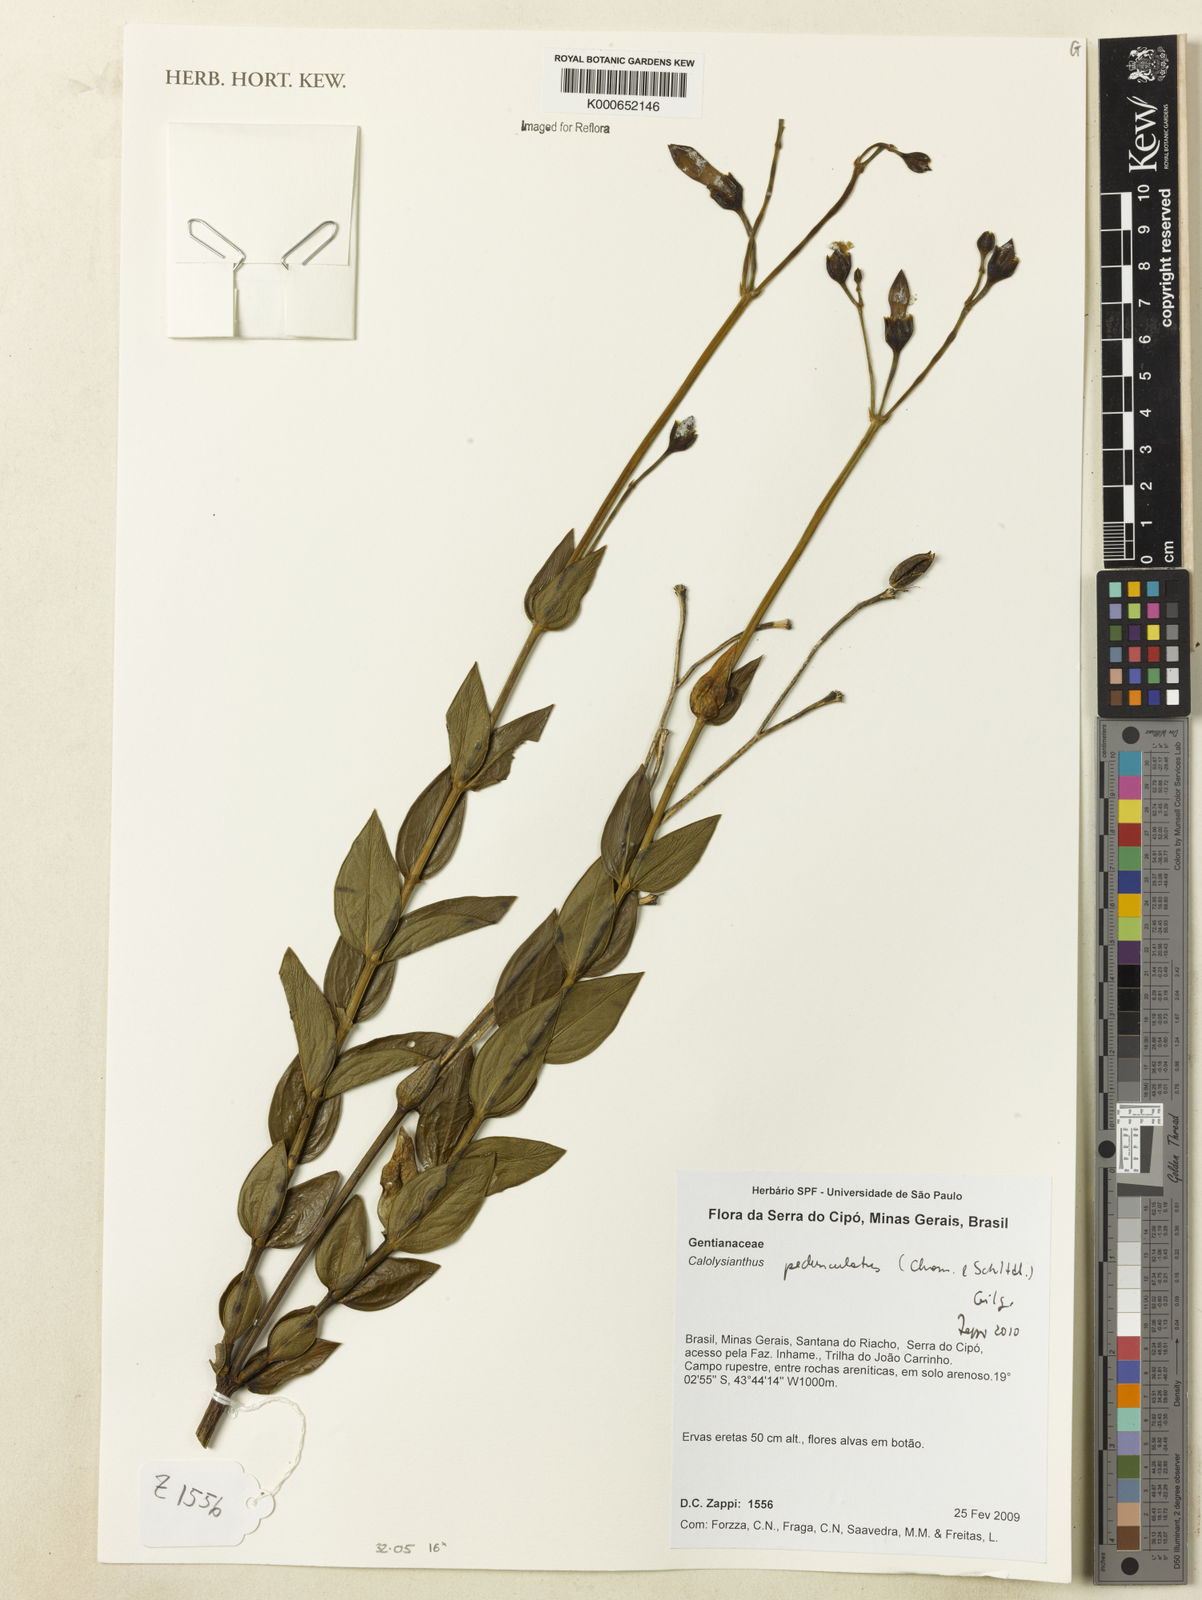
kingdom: Plantae
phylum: Tracheophyta
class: Magnoliopsida
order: Gentianales
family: Gentianaceae
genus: Calolisianthus
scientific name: Calolisianthus pedunculatus
